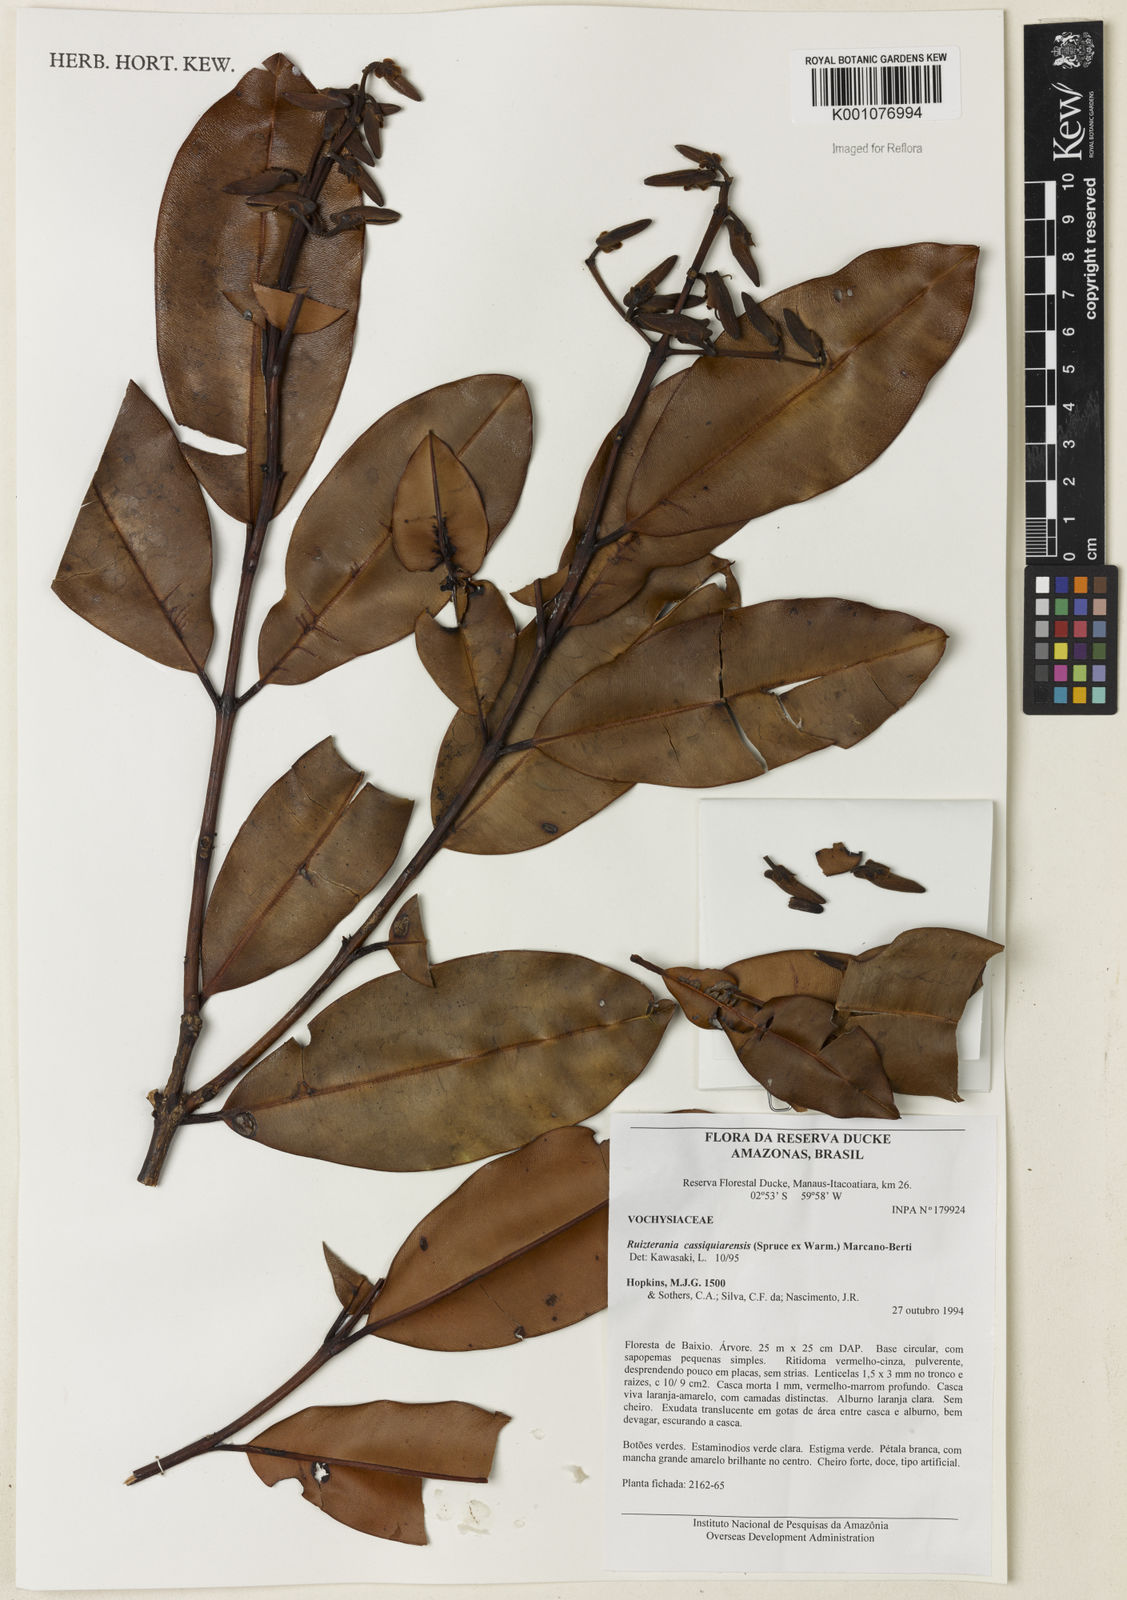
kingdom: Plantae
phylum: Tracheophyta
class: Magnoliopsida
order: Myrtales
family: Vochysiaceae
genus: Ruizterania
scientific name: Ruizterania cassiquiarensis
